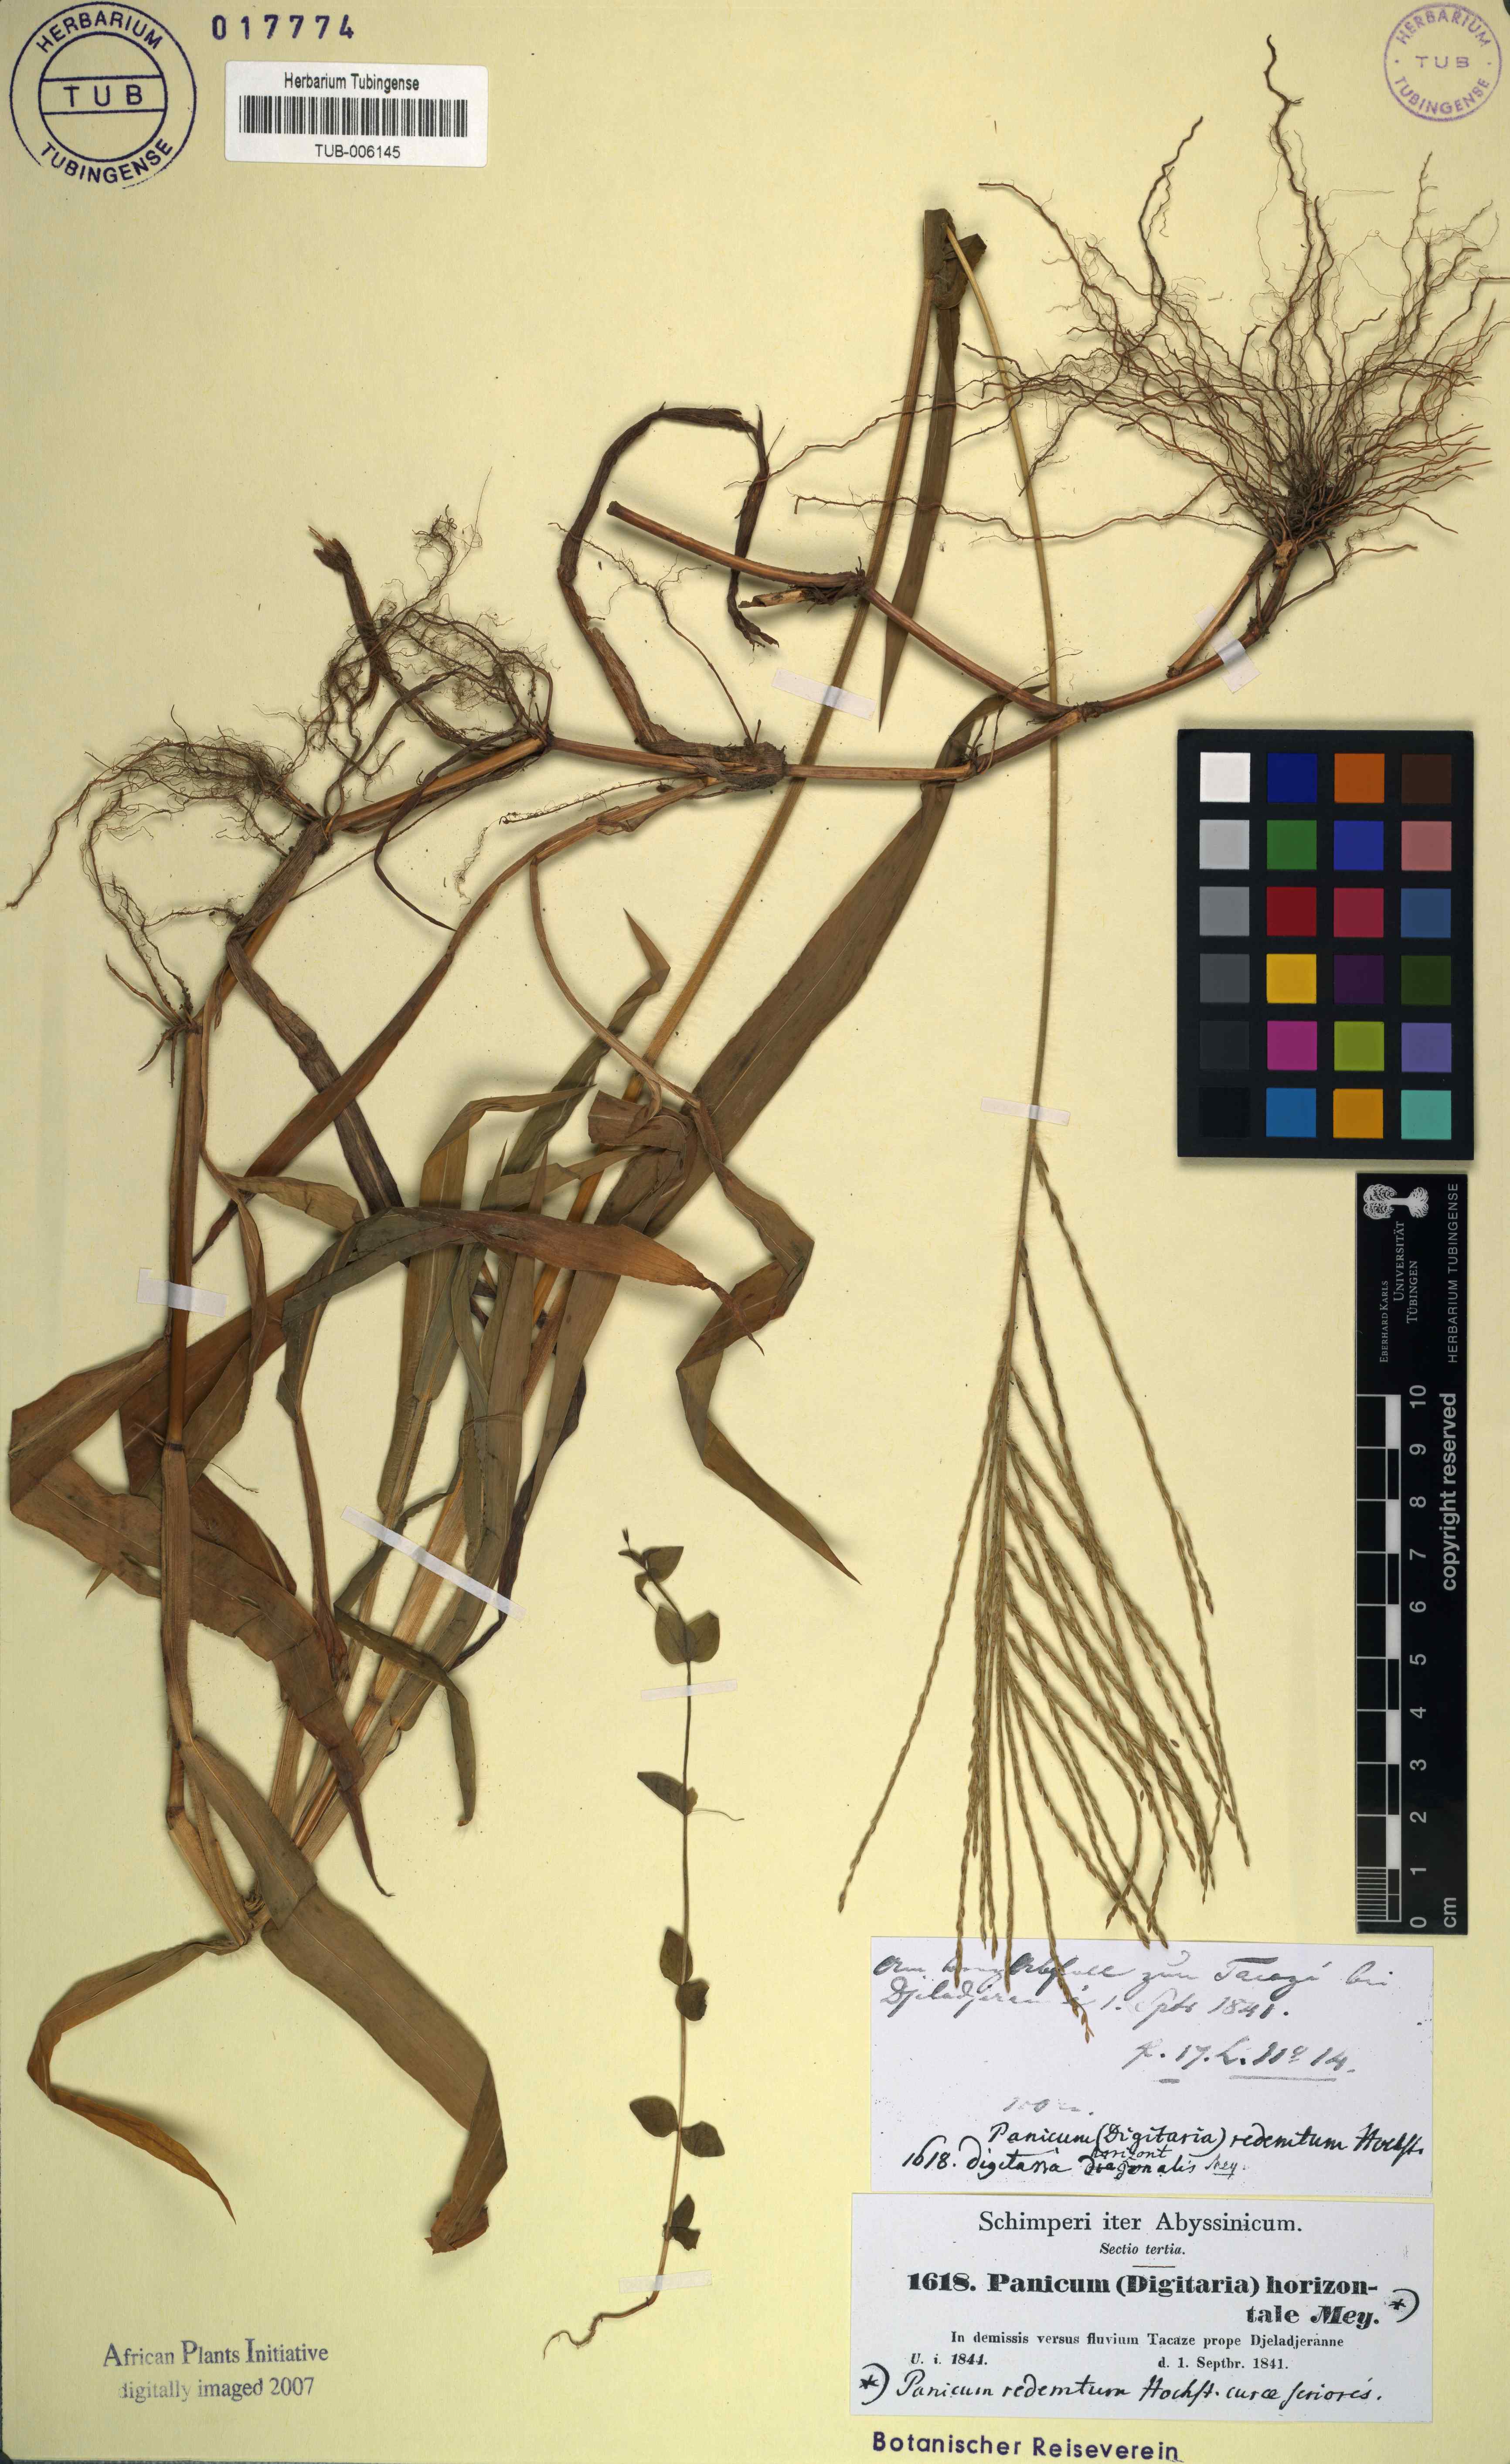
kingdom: Plantae
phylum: Tracheophyta
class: Liliopsida
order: Poales
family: Poaceae
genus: Digitaria
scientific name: Digitaria sanguinalis
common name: Hairy crabgrass
